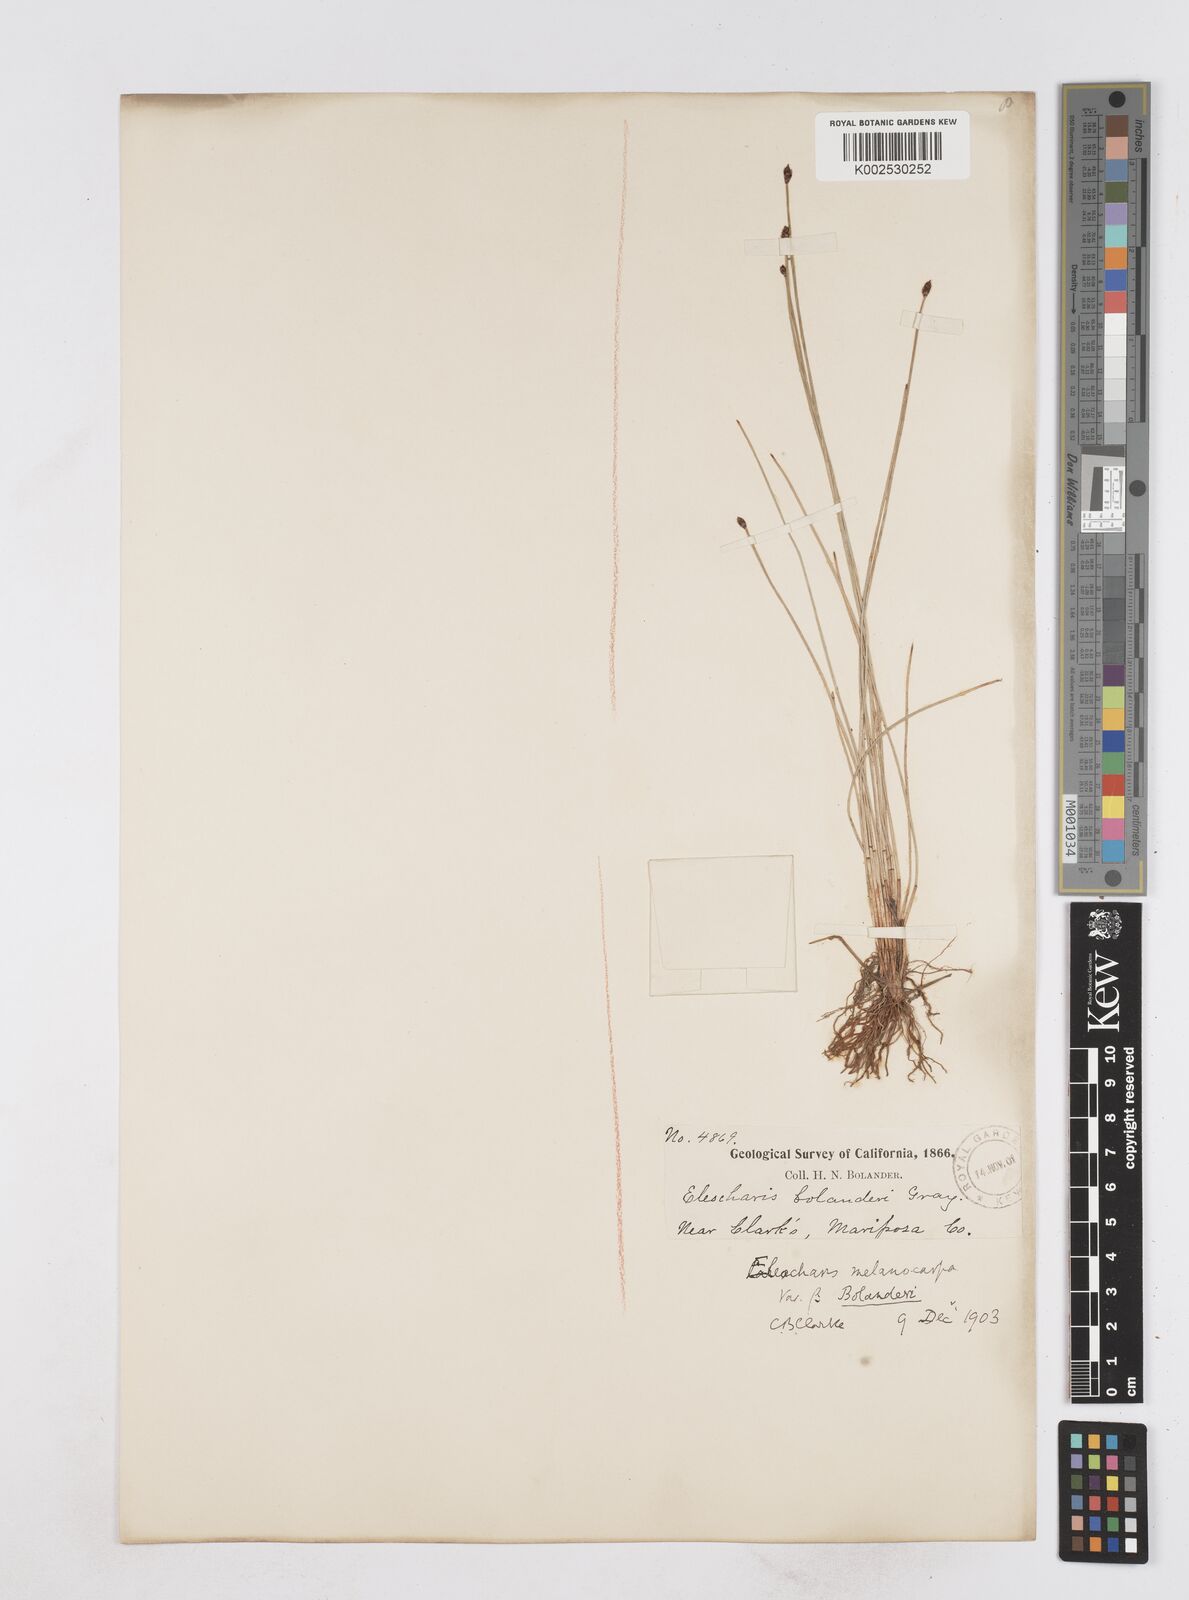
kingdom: Plantae
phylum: Tracheophyta
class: Liliopsida
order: Poales
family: Cyperaceae
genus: Eleocharis
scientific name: Eleocharis bolanderi
